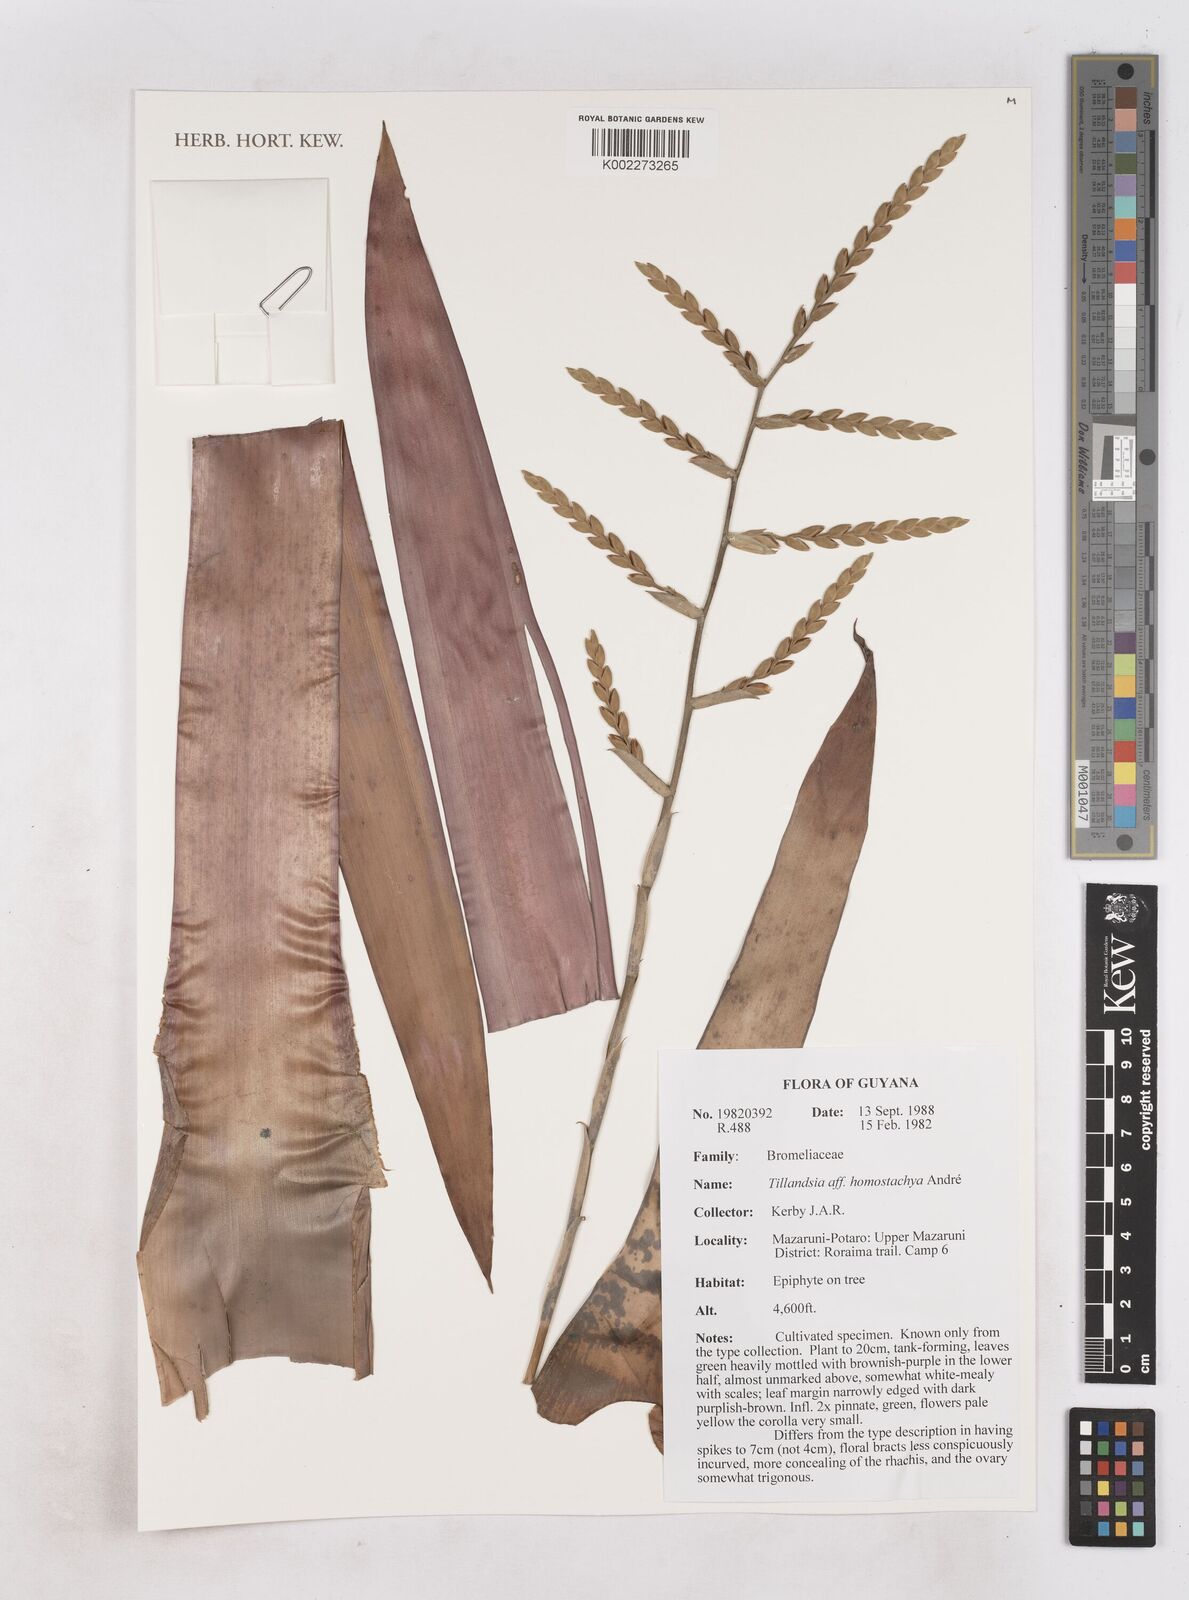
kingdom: Plantae
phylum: Tracheophyta
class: Liliopsida
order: Poales
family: Bromeliaceae
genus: Racinaea
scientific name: Racinaea homostachya
